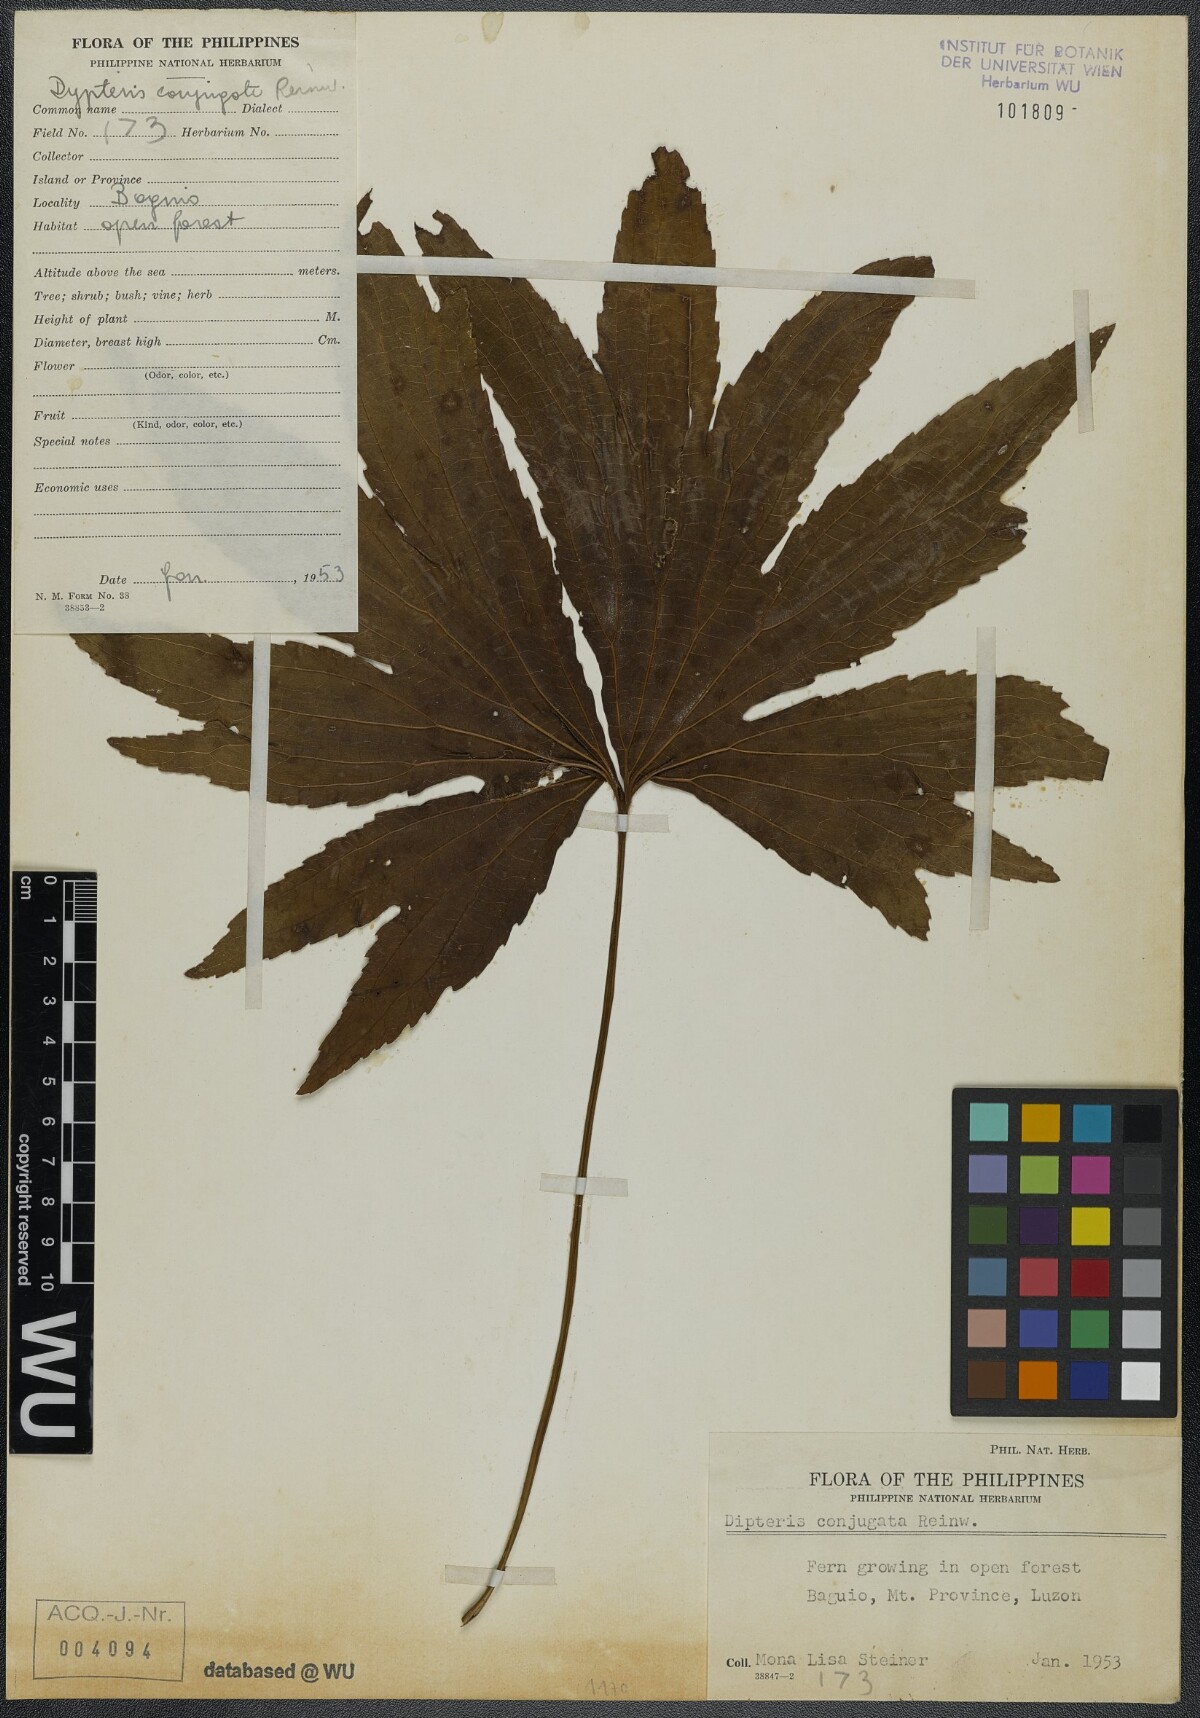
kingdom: Plantae
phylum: Tracheophyta
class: Polypodiopsida
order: Gleicheniales
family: Dipteridaceae
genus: Dipteris
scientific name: Dipteris conjugata
